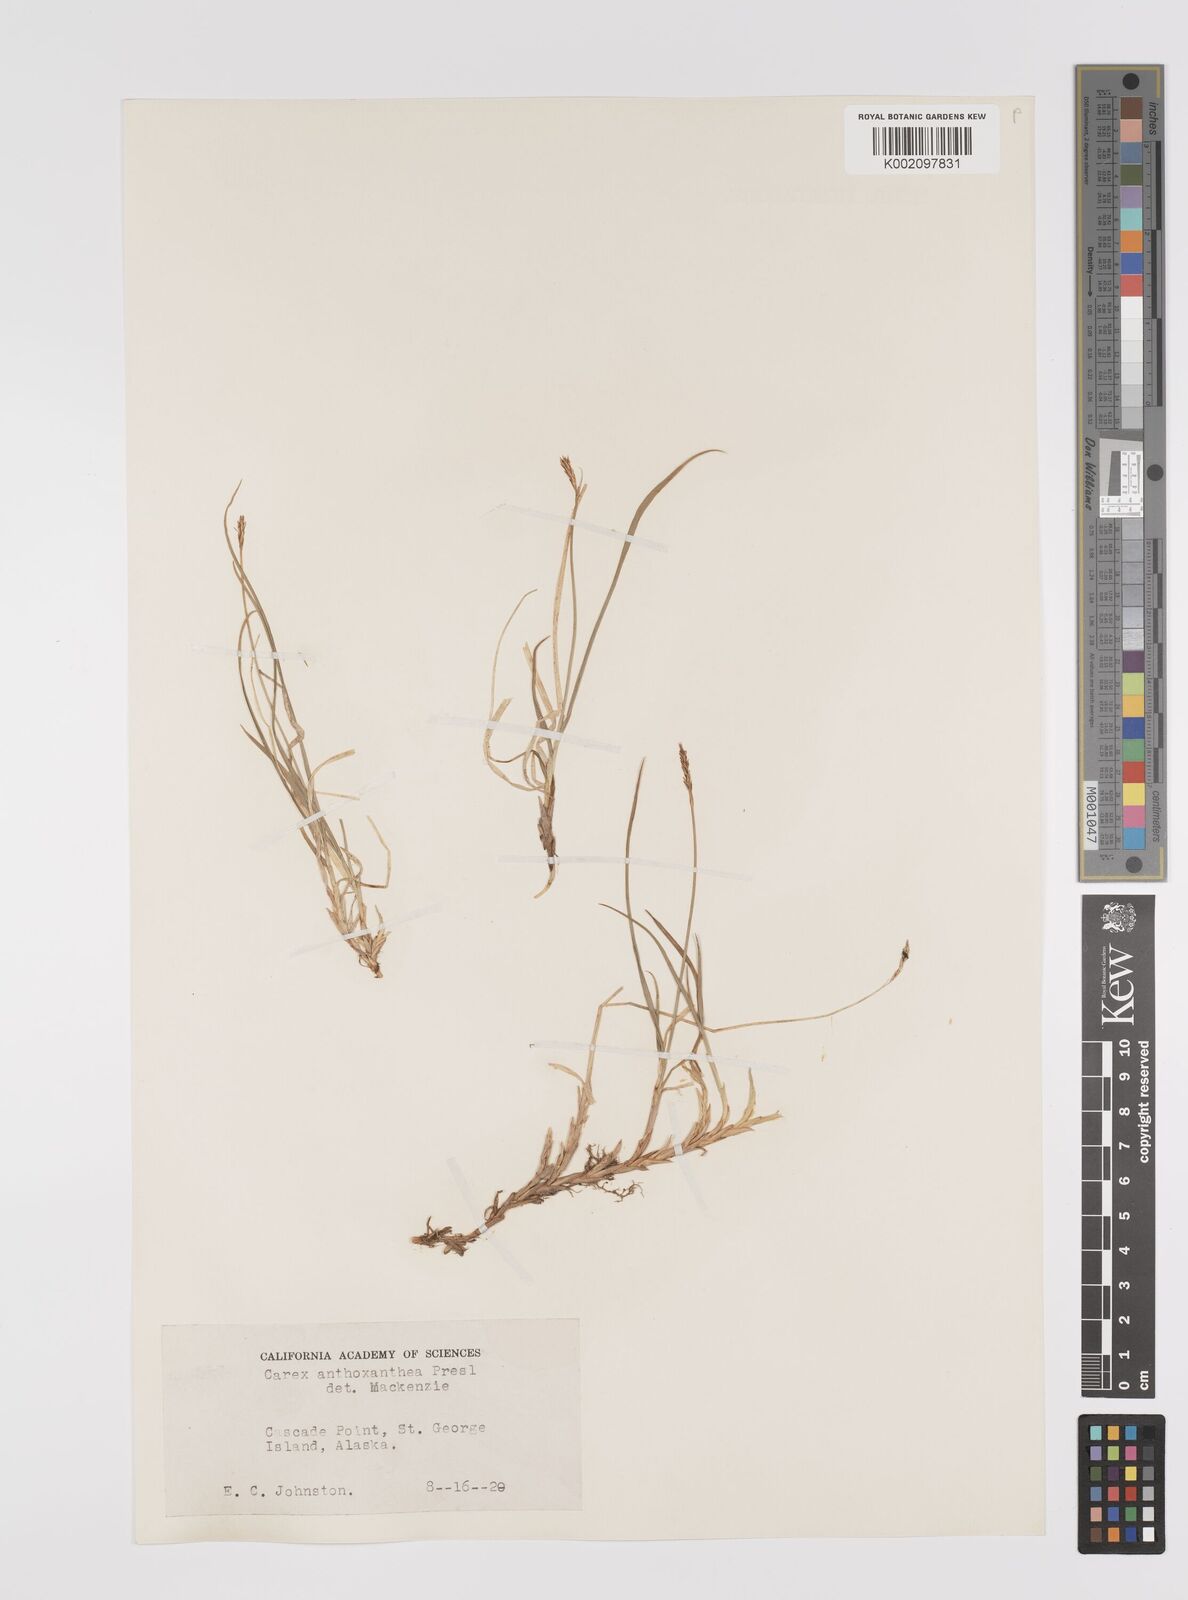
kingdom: Plantae
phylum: Tracheophyta
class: Liliopsida
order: Poales
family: Cyperaceae
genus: Carex
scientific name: Carex anthoxanthea
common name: Grassy-slope arctic sedge
